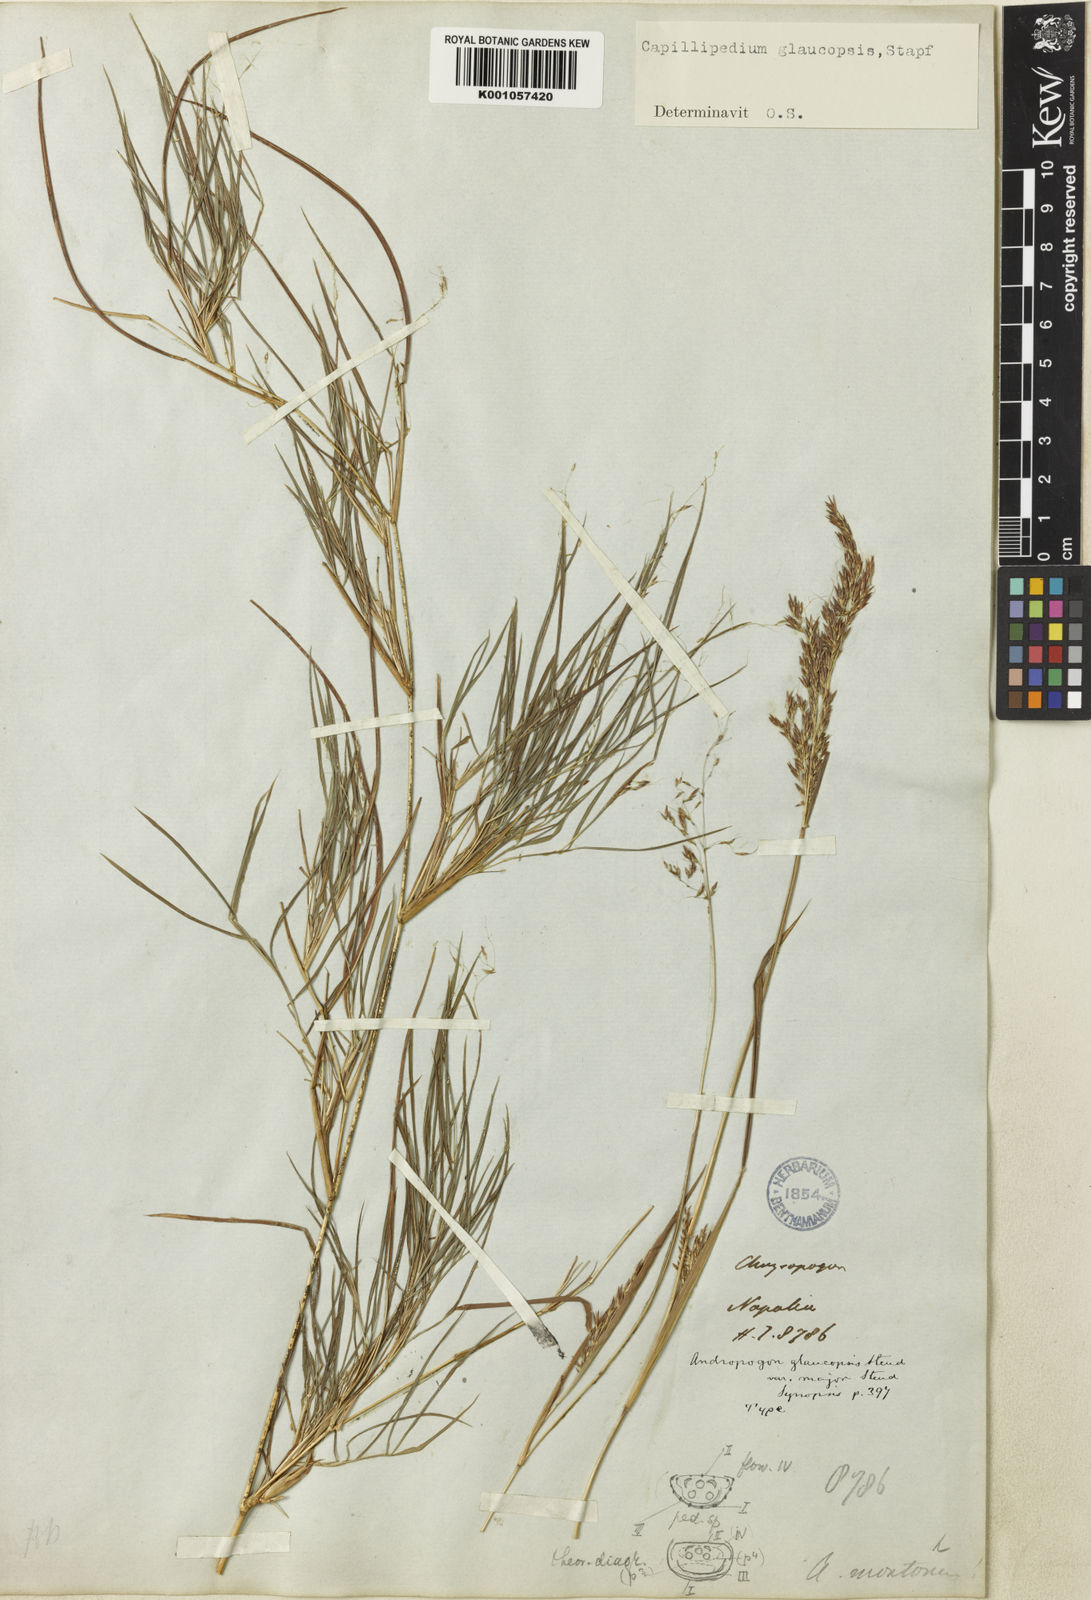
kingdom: Plantae
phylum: Tracheophyta
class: Liliopsida
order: Poales
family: Poaceae
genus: Capillipedium
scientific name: Capillipedium assimile
